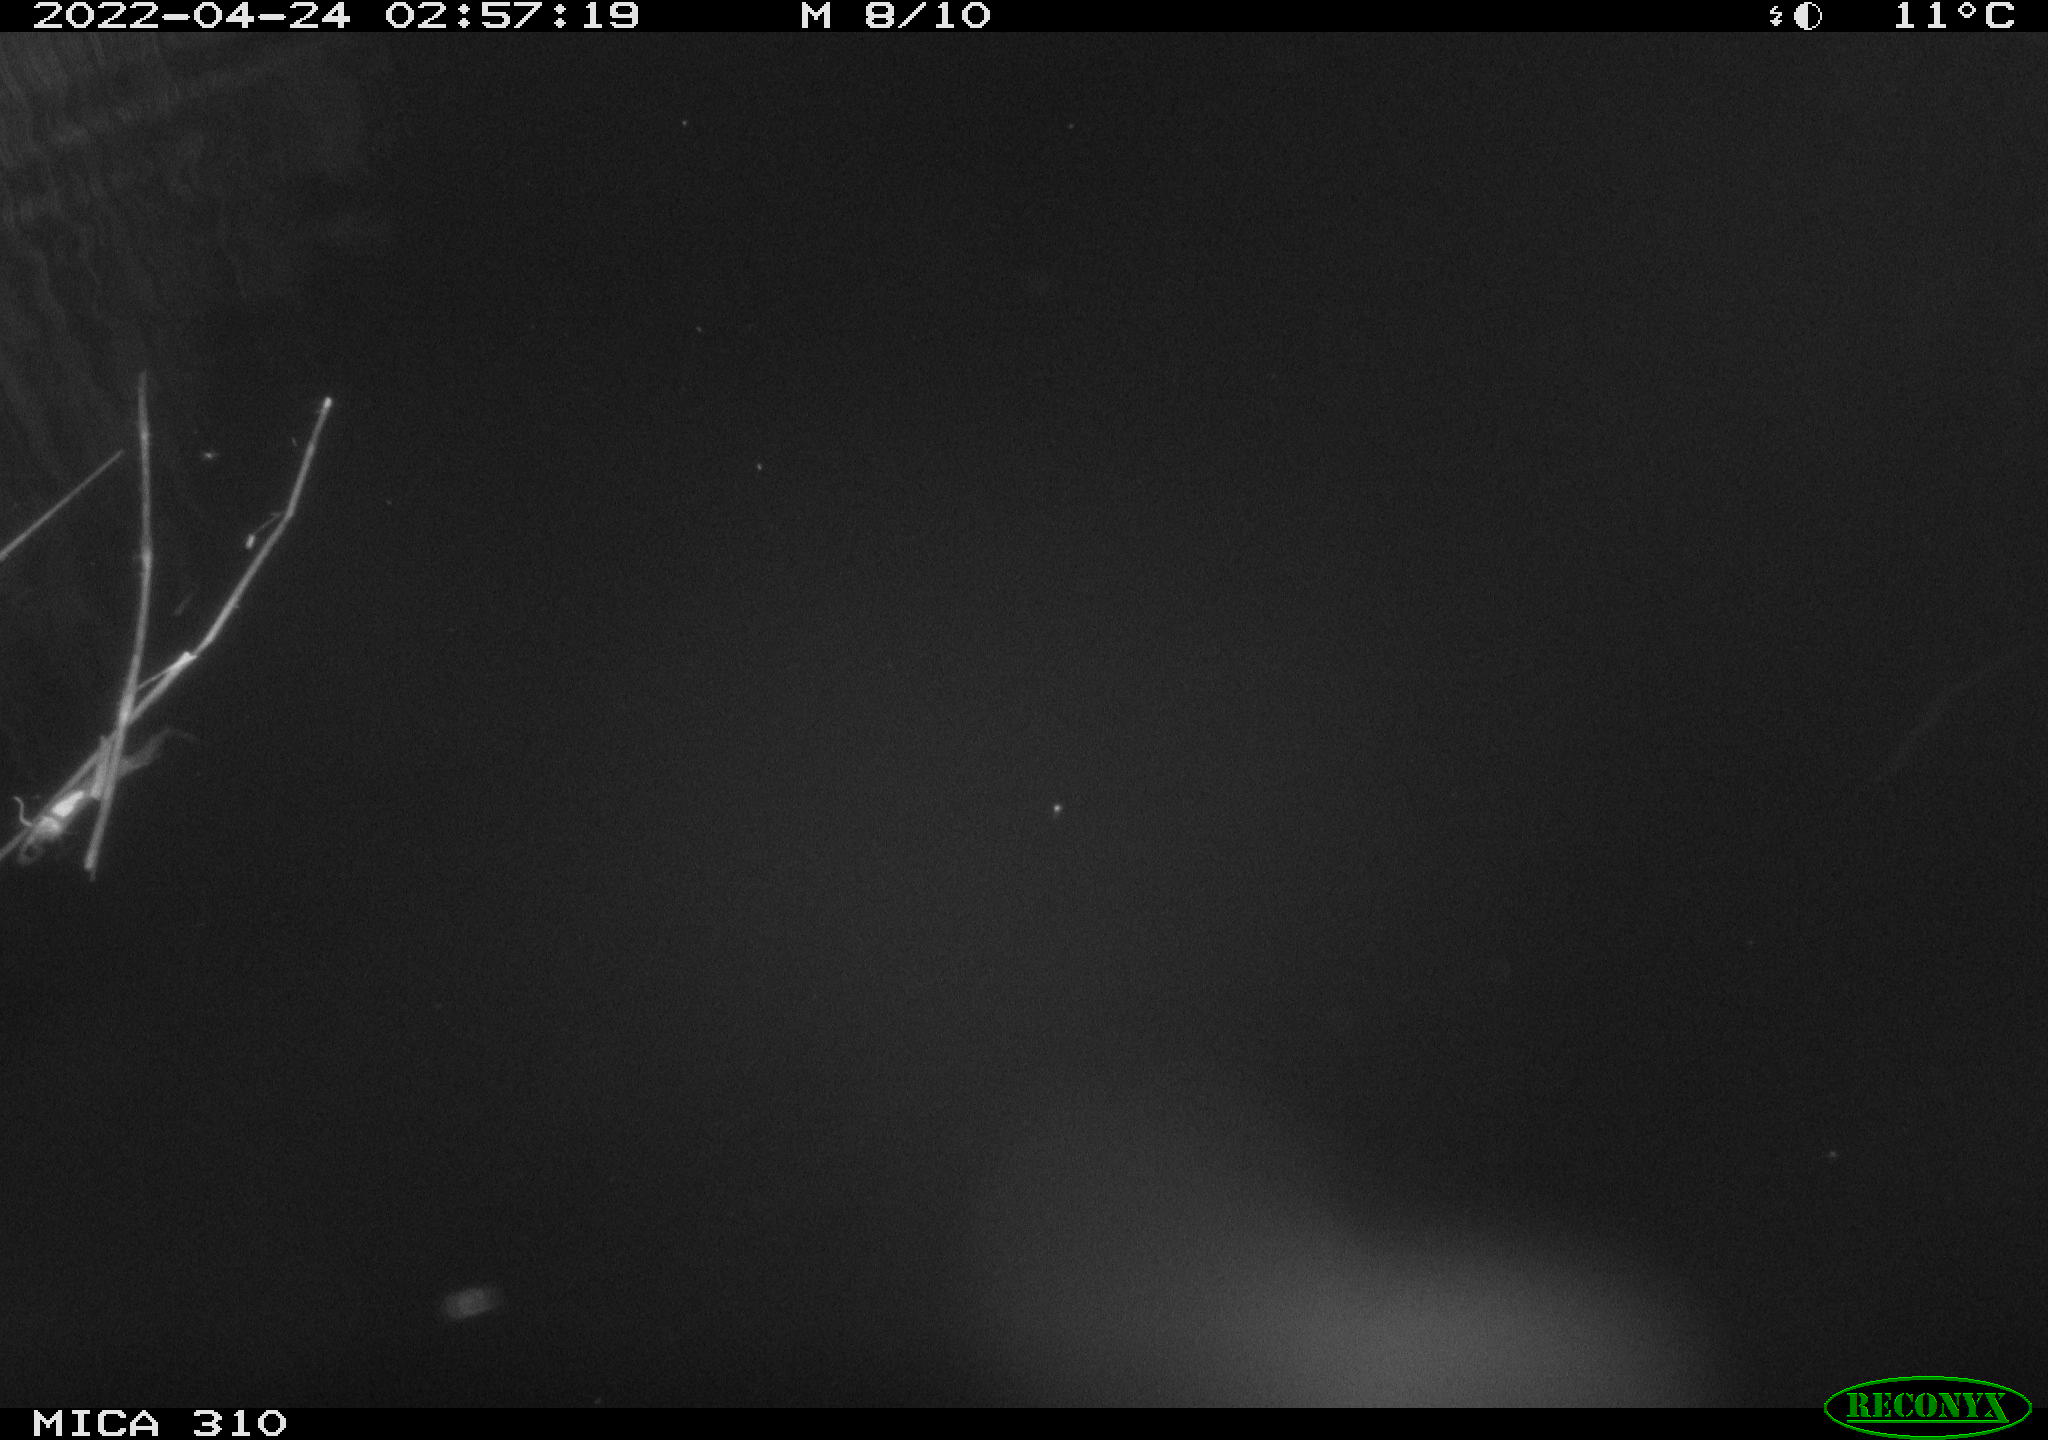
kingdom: Animalia
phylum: Chordata
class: Aves
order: Anseriformes
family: Anatidae
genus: Anas
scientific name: Anas platyrhynchos
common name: Mallard
